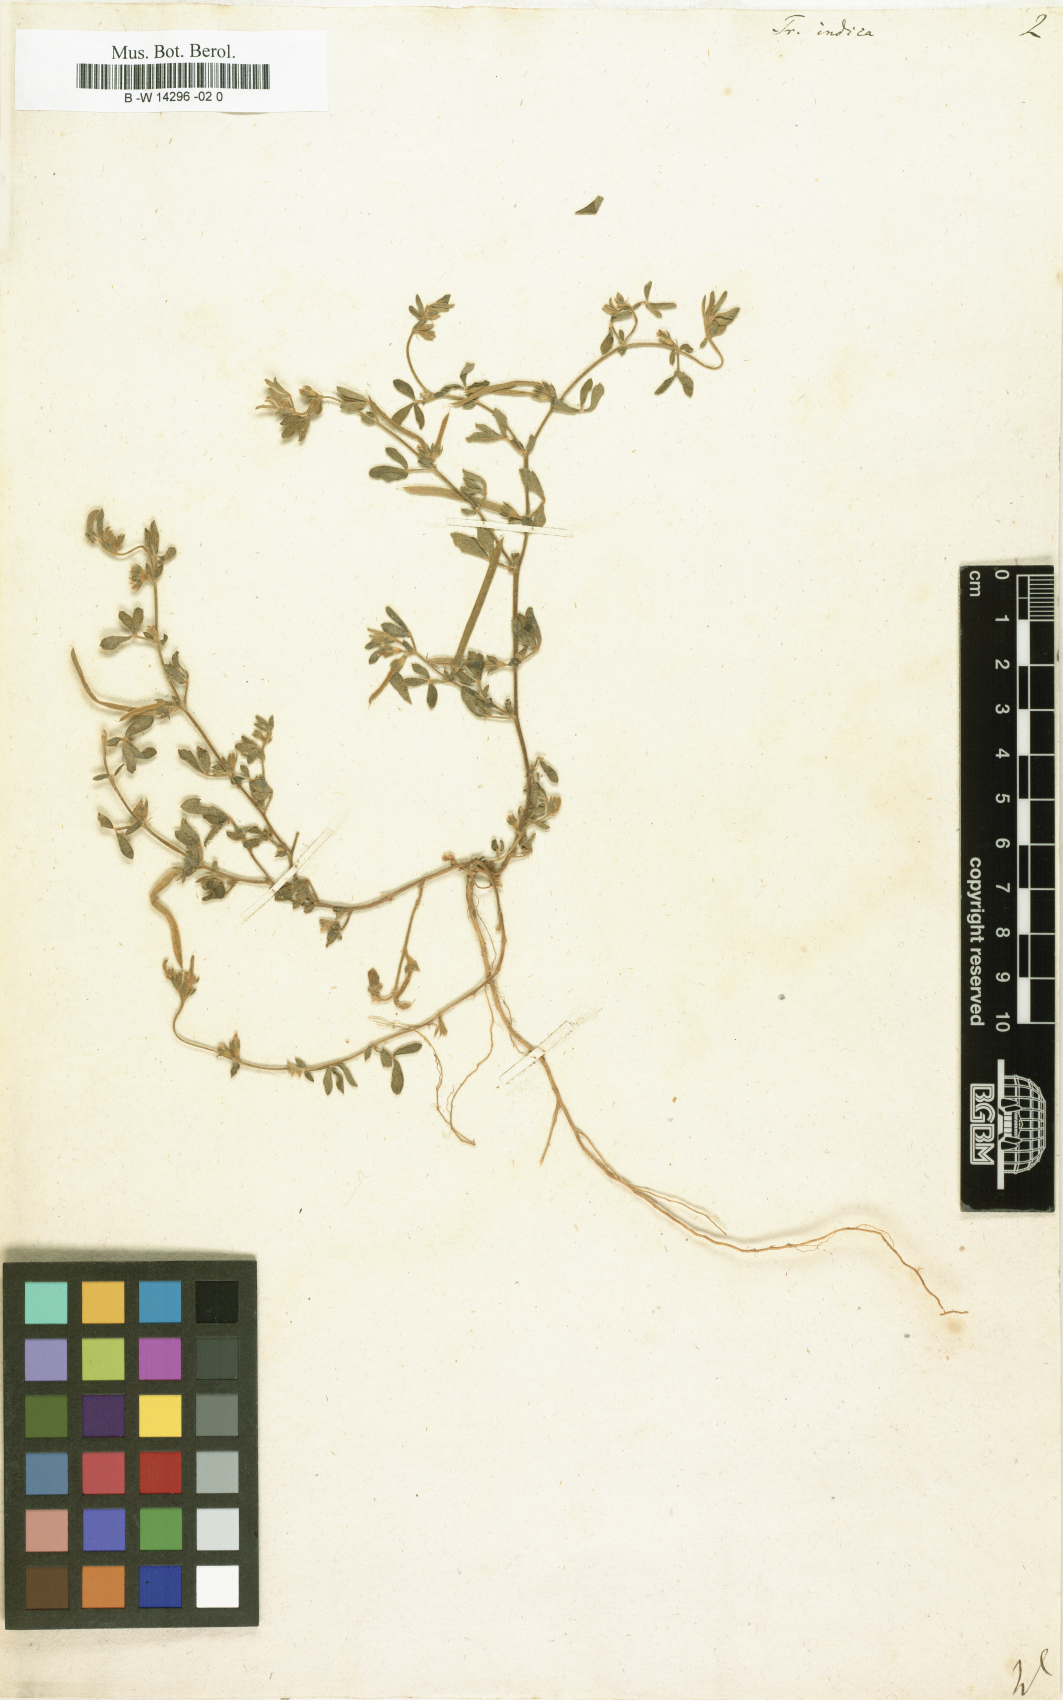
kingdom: Plantae
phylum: Tracheophyta
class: Magnoliopsida
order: Fabales
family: Fabaceae
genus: Rothia
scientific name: Rothia indica
